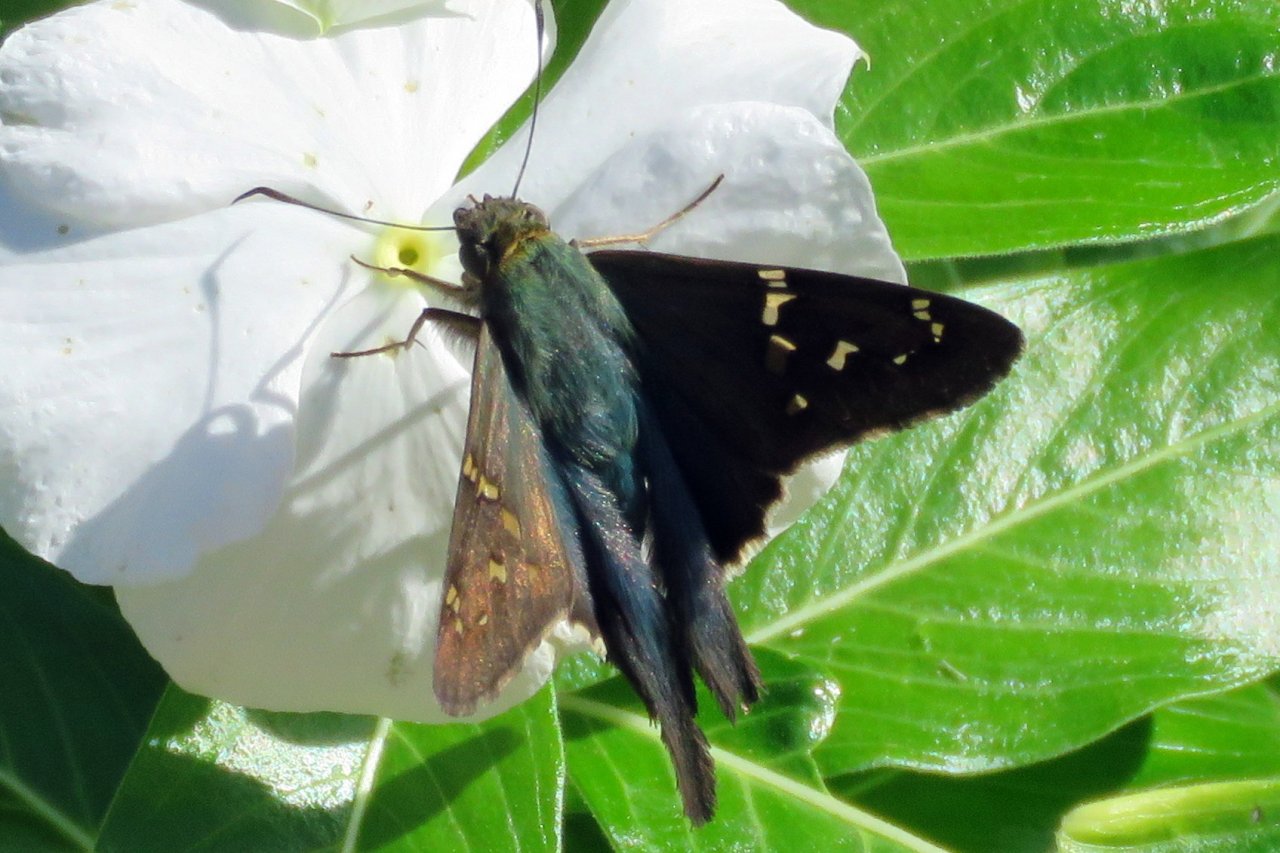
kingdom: Animalia
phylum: Arthropoda
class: Insecta
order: Lepidoptera
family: Hesperiidae
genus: Urbanus
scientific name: Urbanus proteus
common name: Long-tailed Skipper
